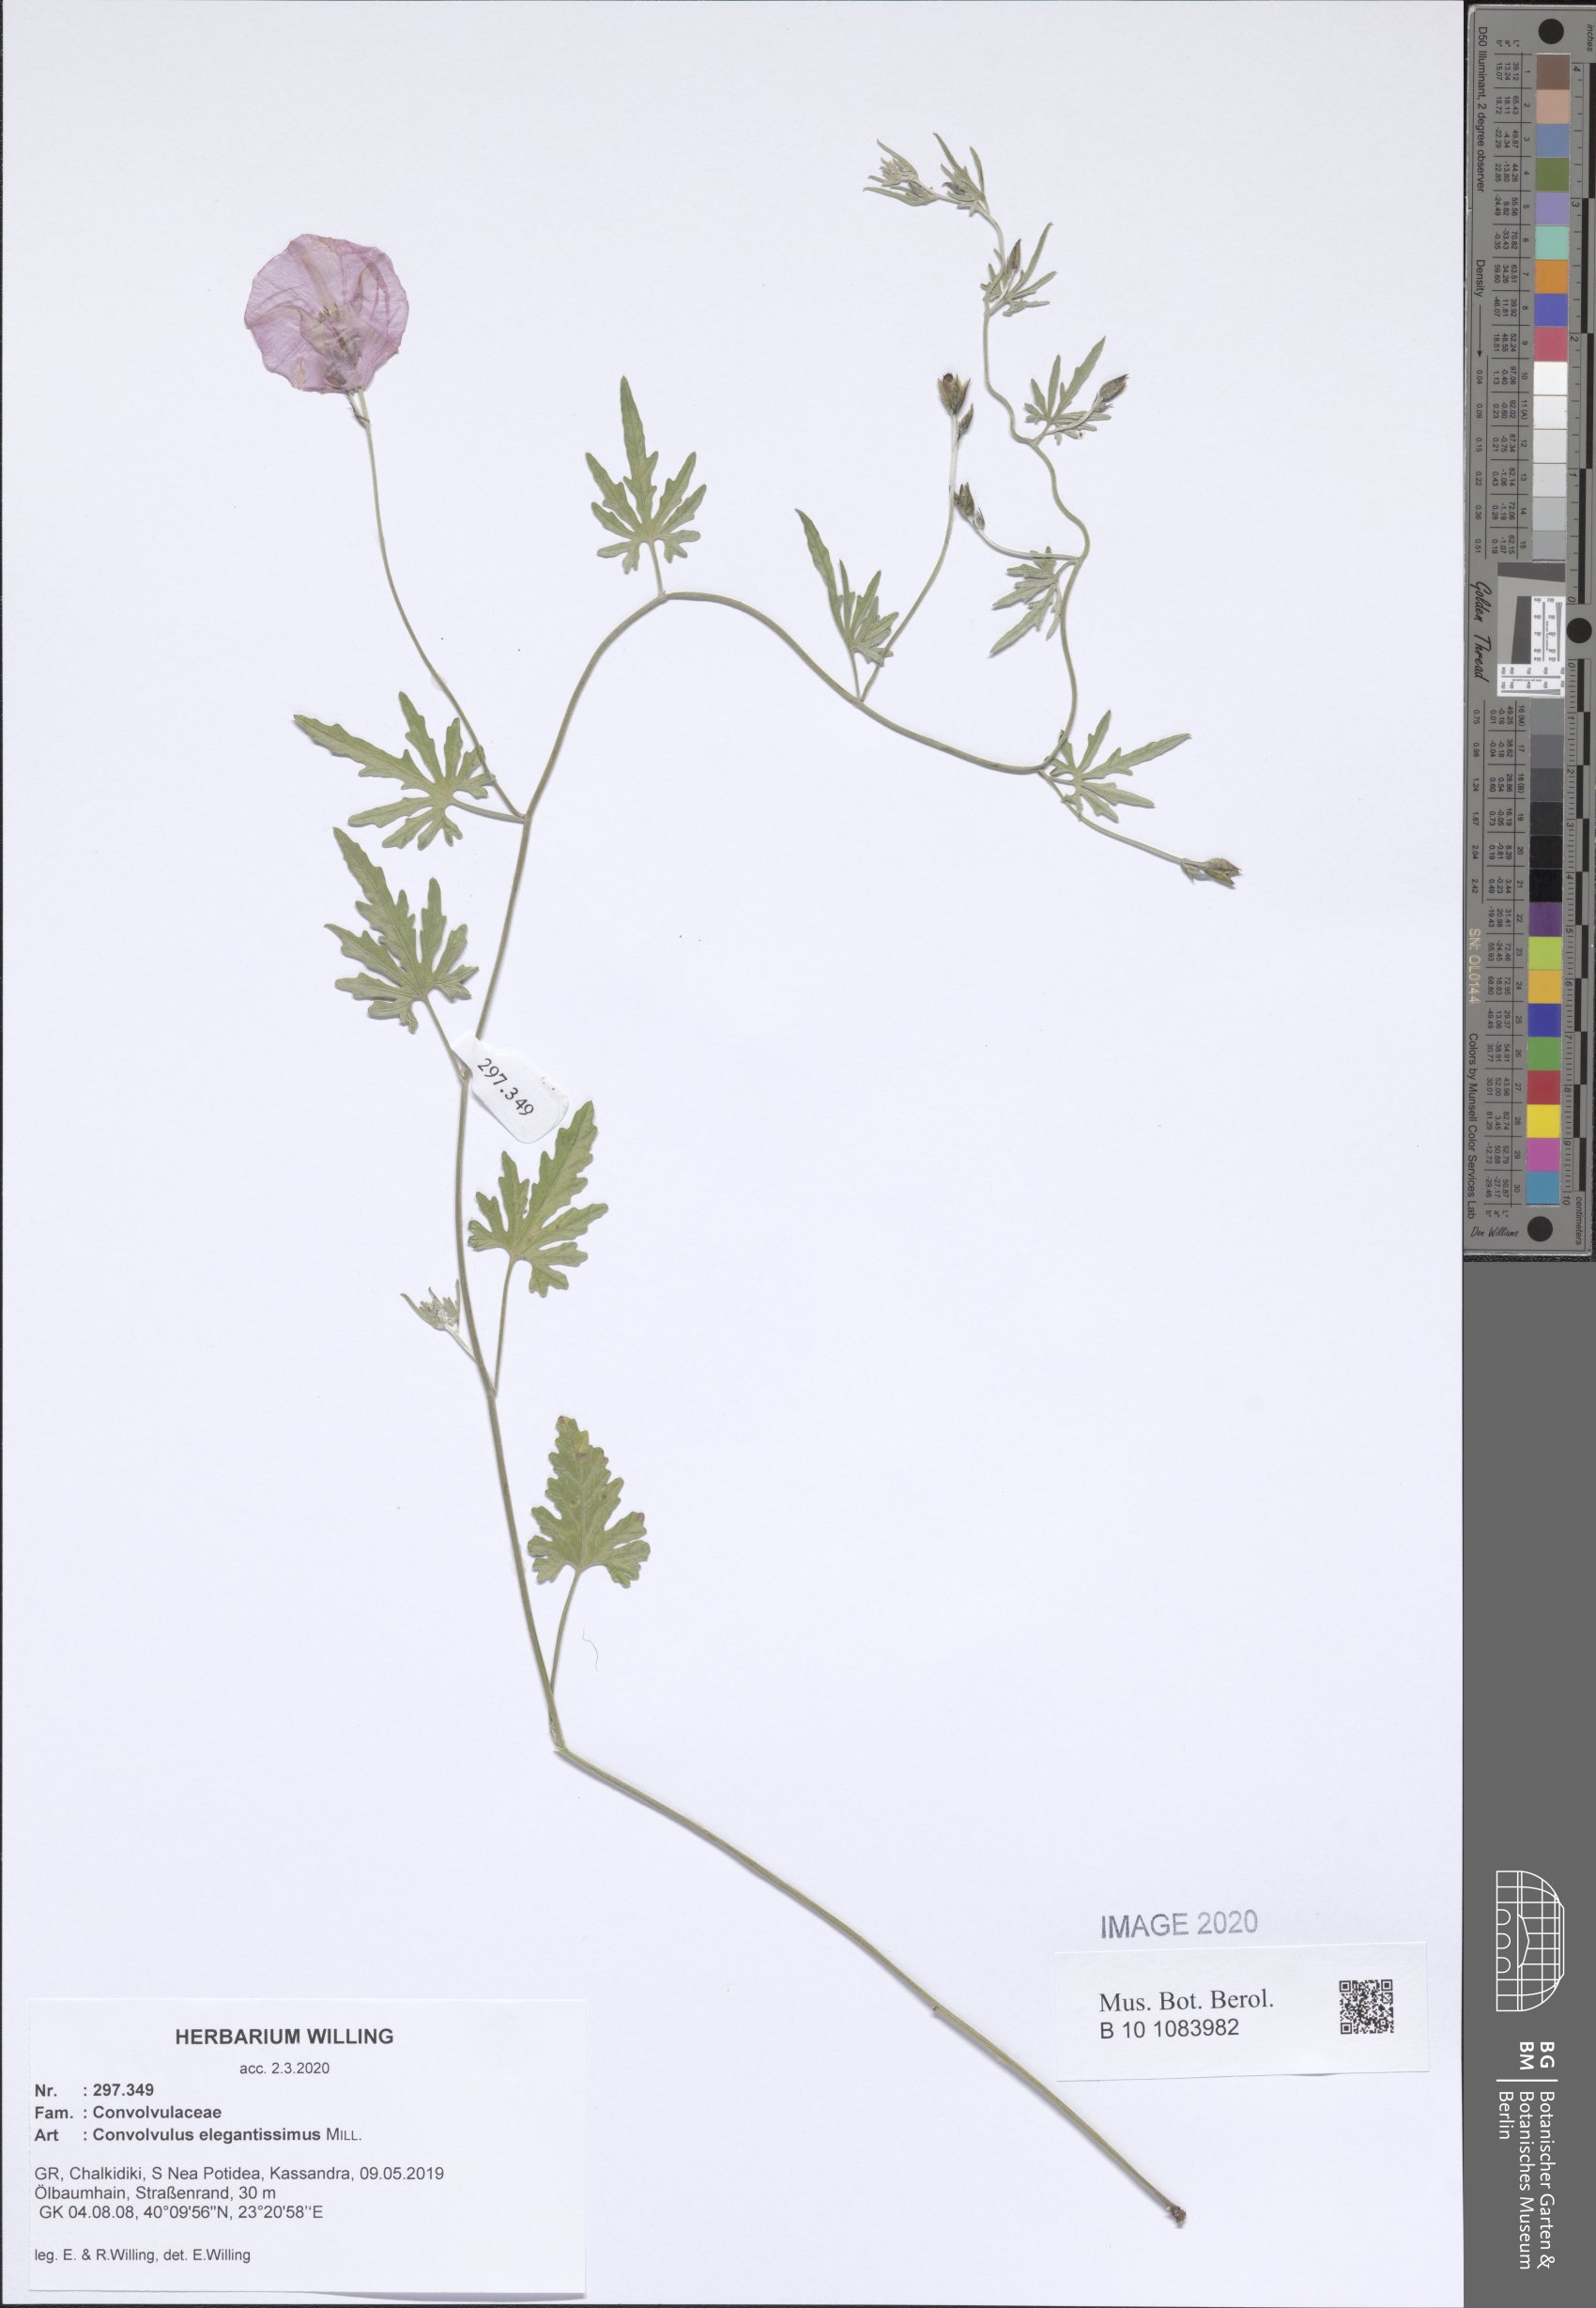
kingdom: Plantae
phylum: Tracheophyta
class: Magnoliopsida
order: Solanales
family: Convolvulaceae
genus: Convolvulus
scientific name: Convolvulus elegantissimus
